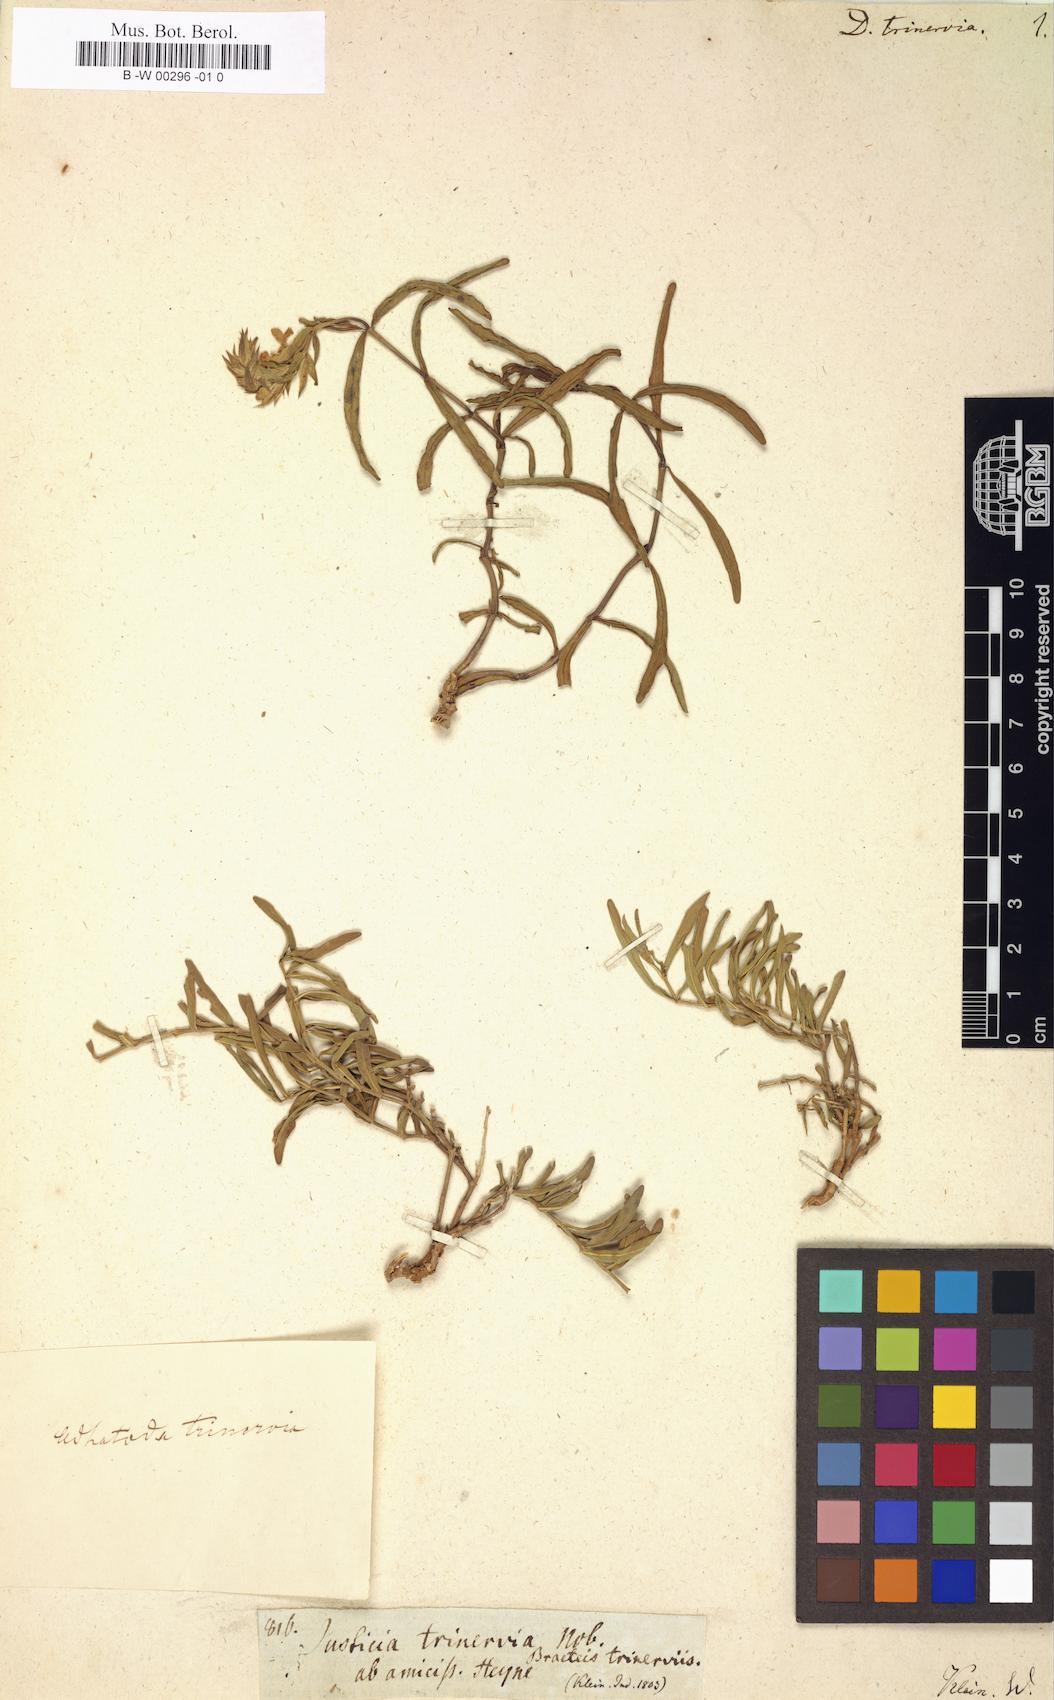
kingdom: Plantae
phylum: Tracheophyta
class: Magnoliopsida
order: Lamiales
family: Acanthaceae
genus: Nicoteba
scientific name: Nicoteba trinervia
